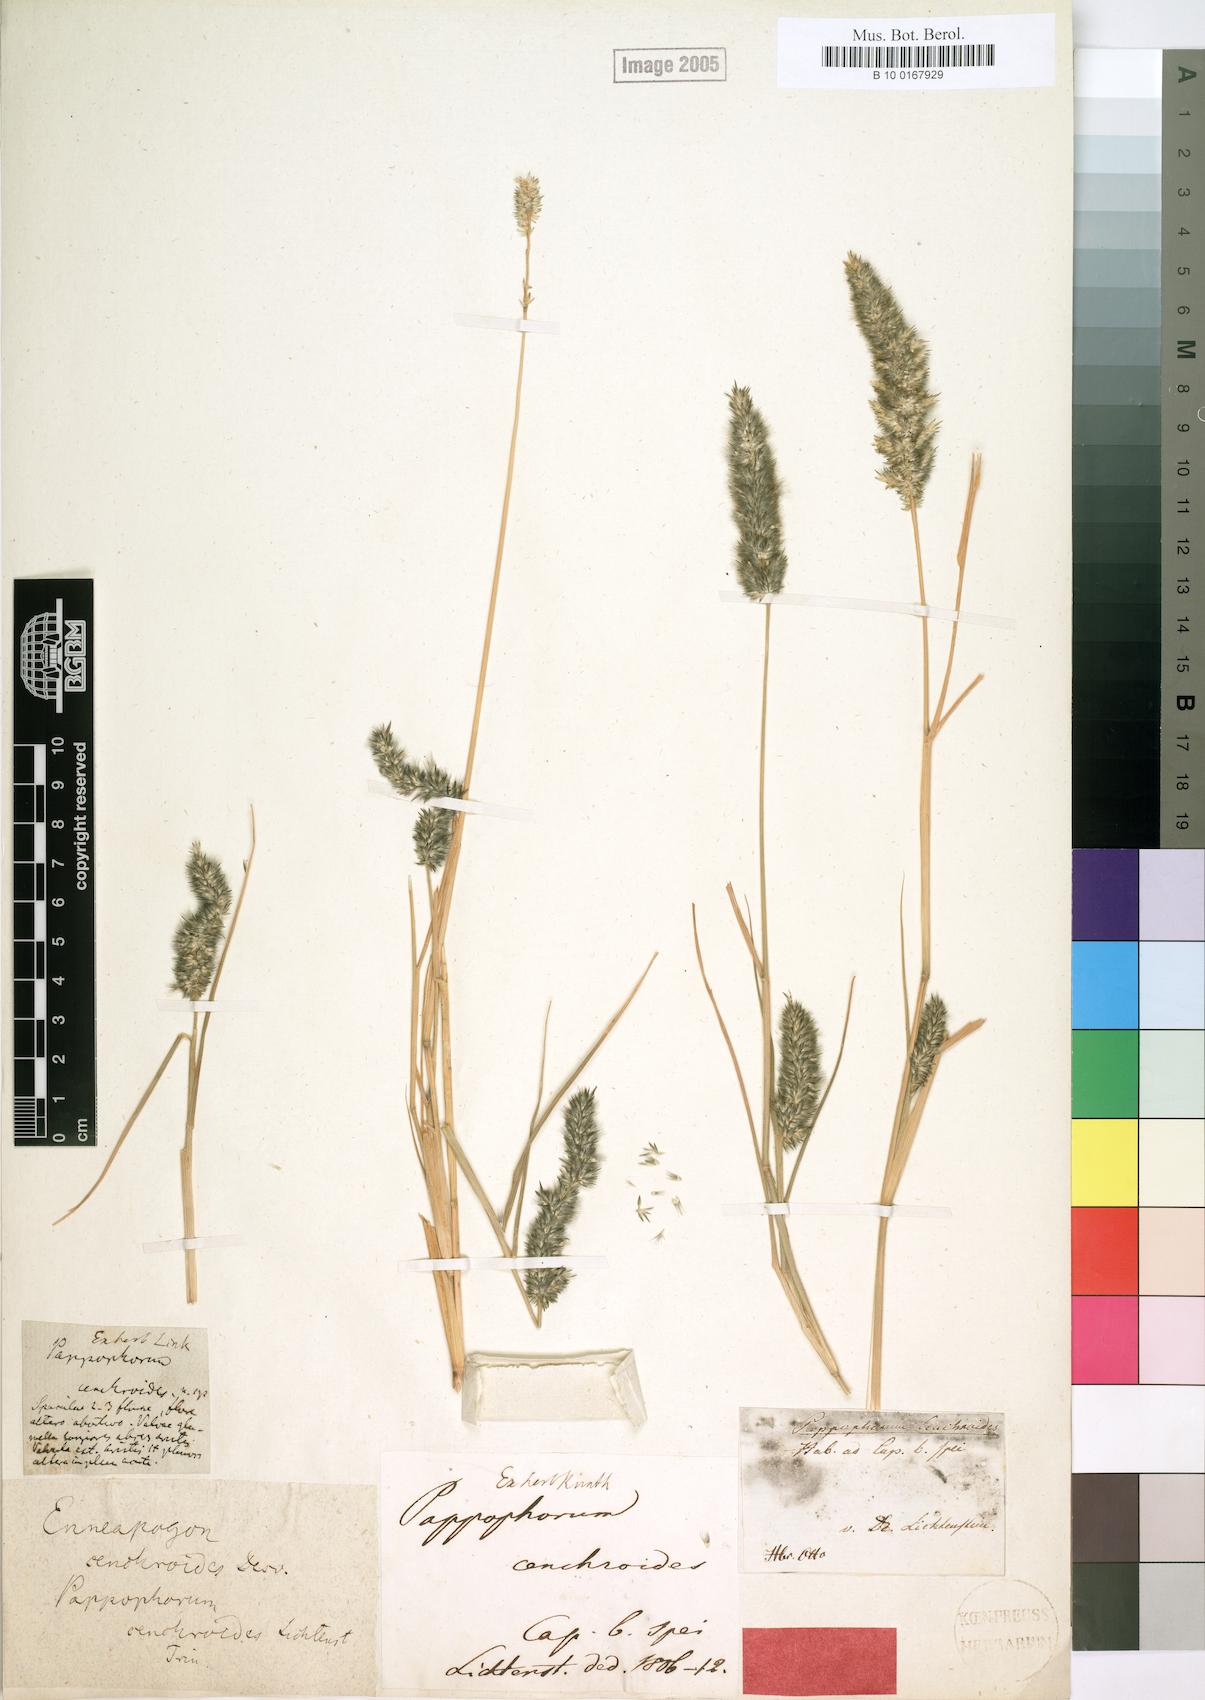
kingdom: Plantae
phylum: Tracheophyta
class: Liliopsida
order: Poales
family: Poaceae
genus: Enneapogon
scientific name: Enneapogon cenchroides
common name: Soft feather pappusgrass
